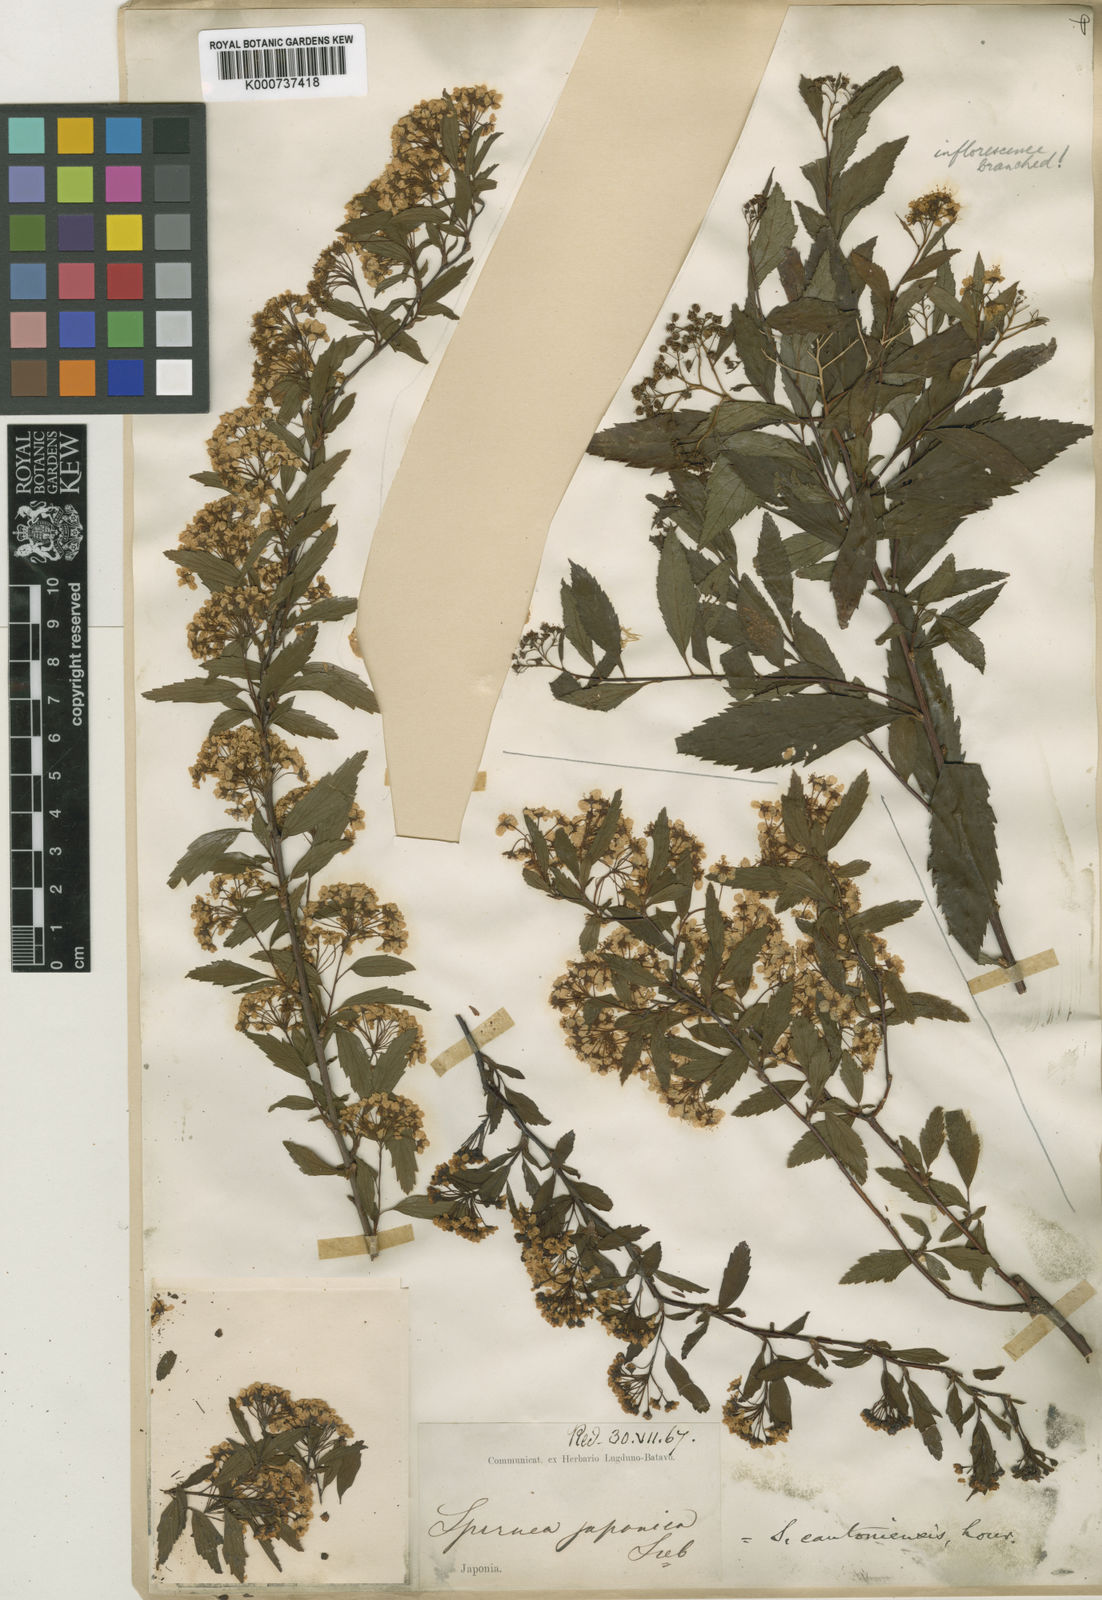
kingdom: Plantae
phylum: Tracheophyta
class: Magnoliopsida
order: Rosales
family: Rosaceae
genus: Spiraea
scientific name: Spiraea cantoniensis
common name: Reeves' meadowsweet
